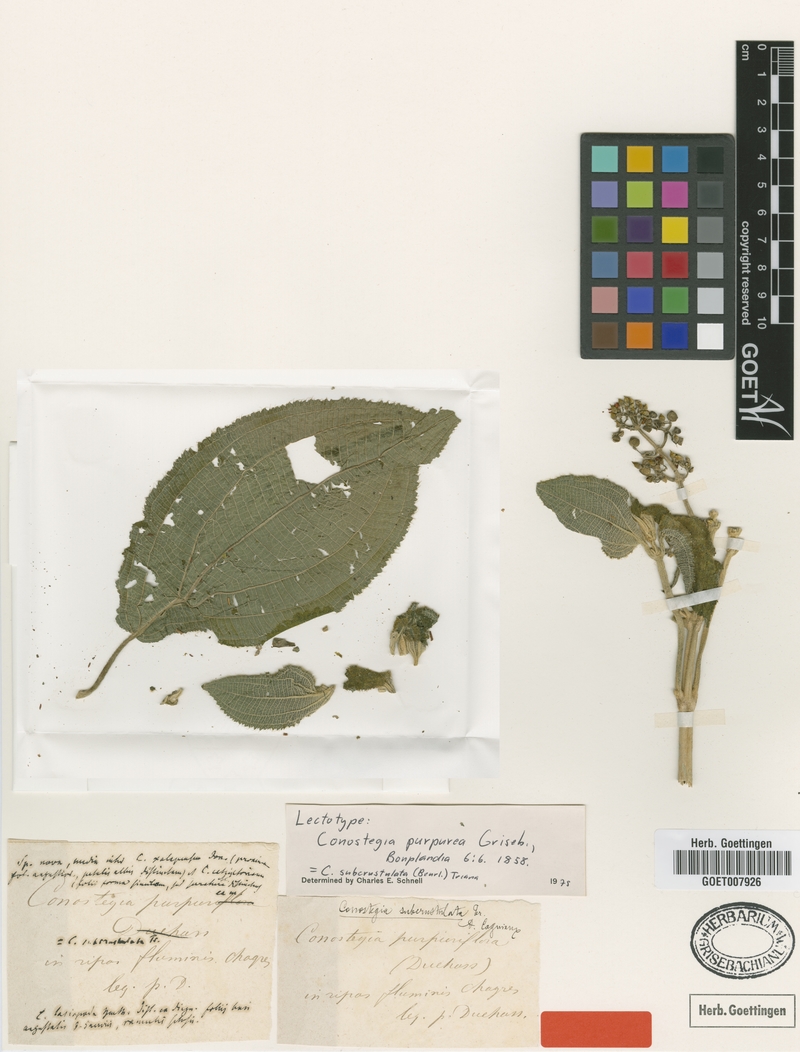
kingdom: Plantae
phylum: Tracheophyta
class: Magnoliopsida
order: Myrtales
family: Melastomataceae
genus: Miconia
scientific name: Miconia subcrustulata
